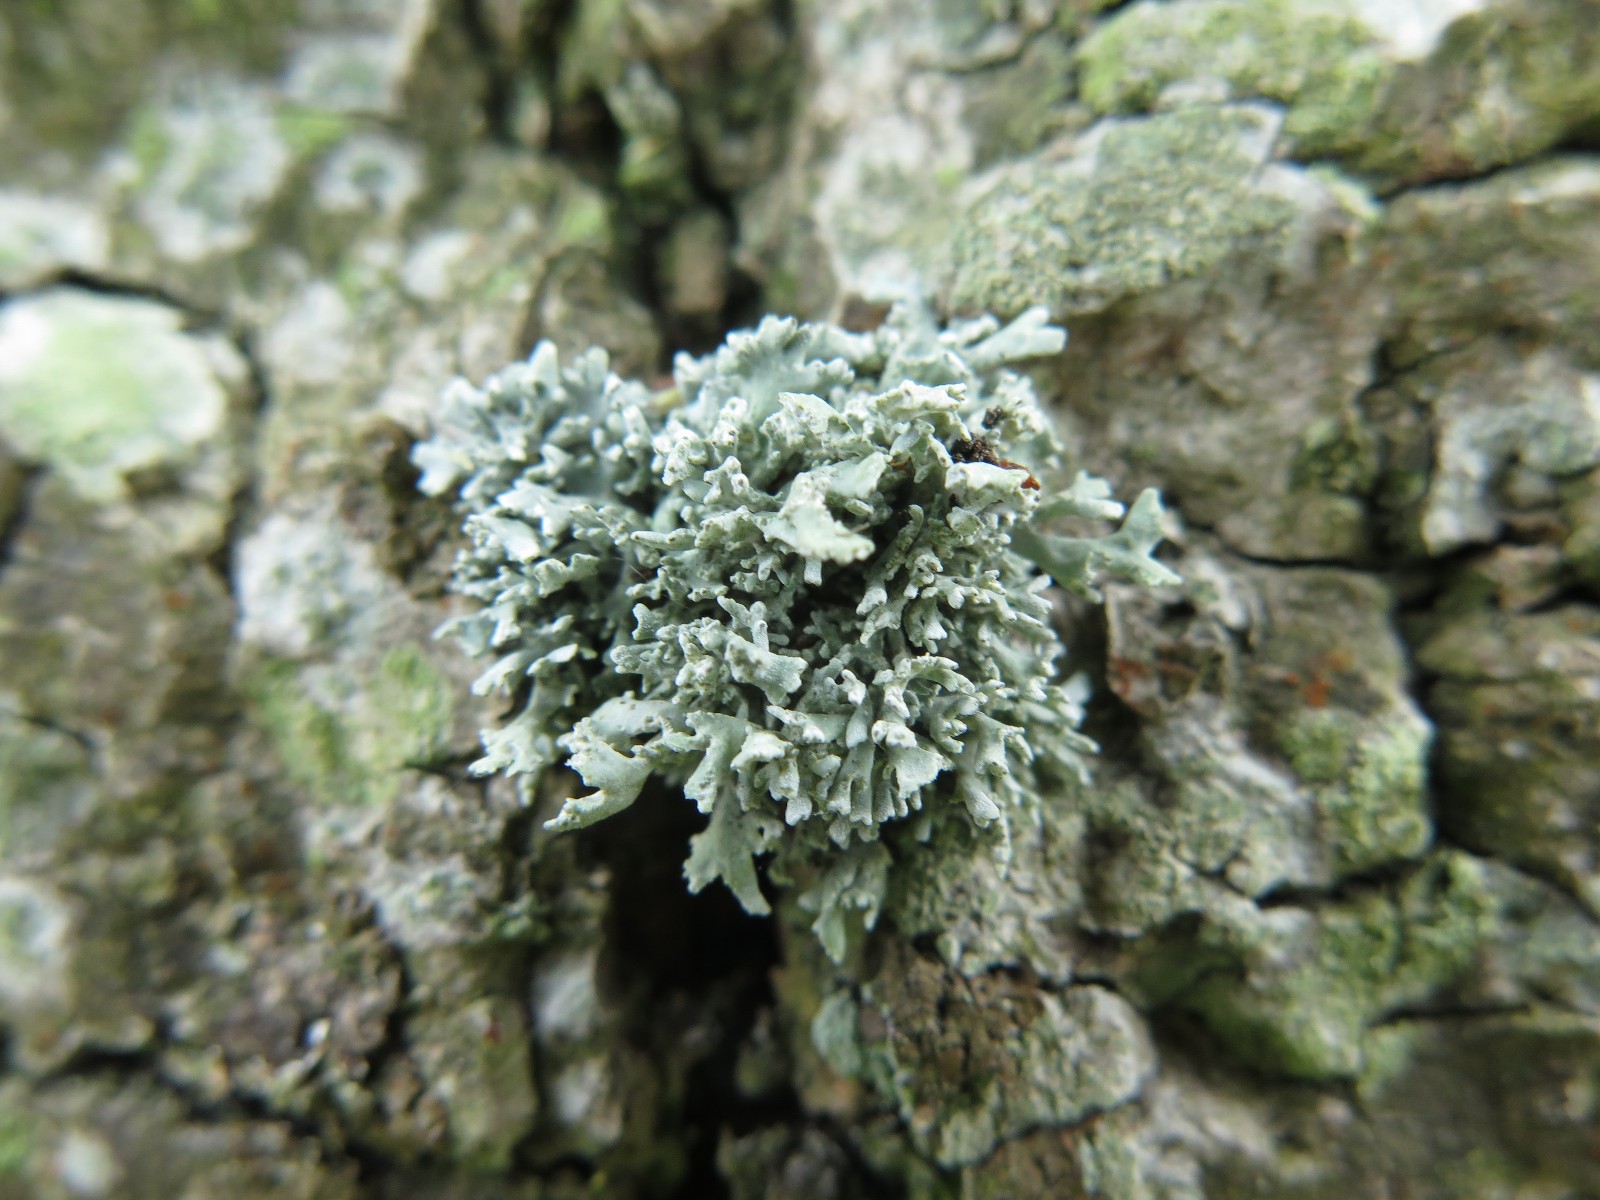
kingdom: Fungi
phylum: Ascomycota
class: Lecanoromycetes
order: Lecanorales
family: Parmeliaceae
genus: Evernia
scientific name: Evernia prunastri
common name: almindelig slåenlav
